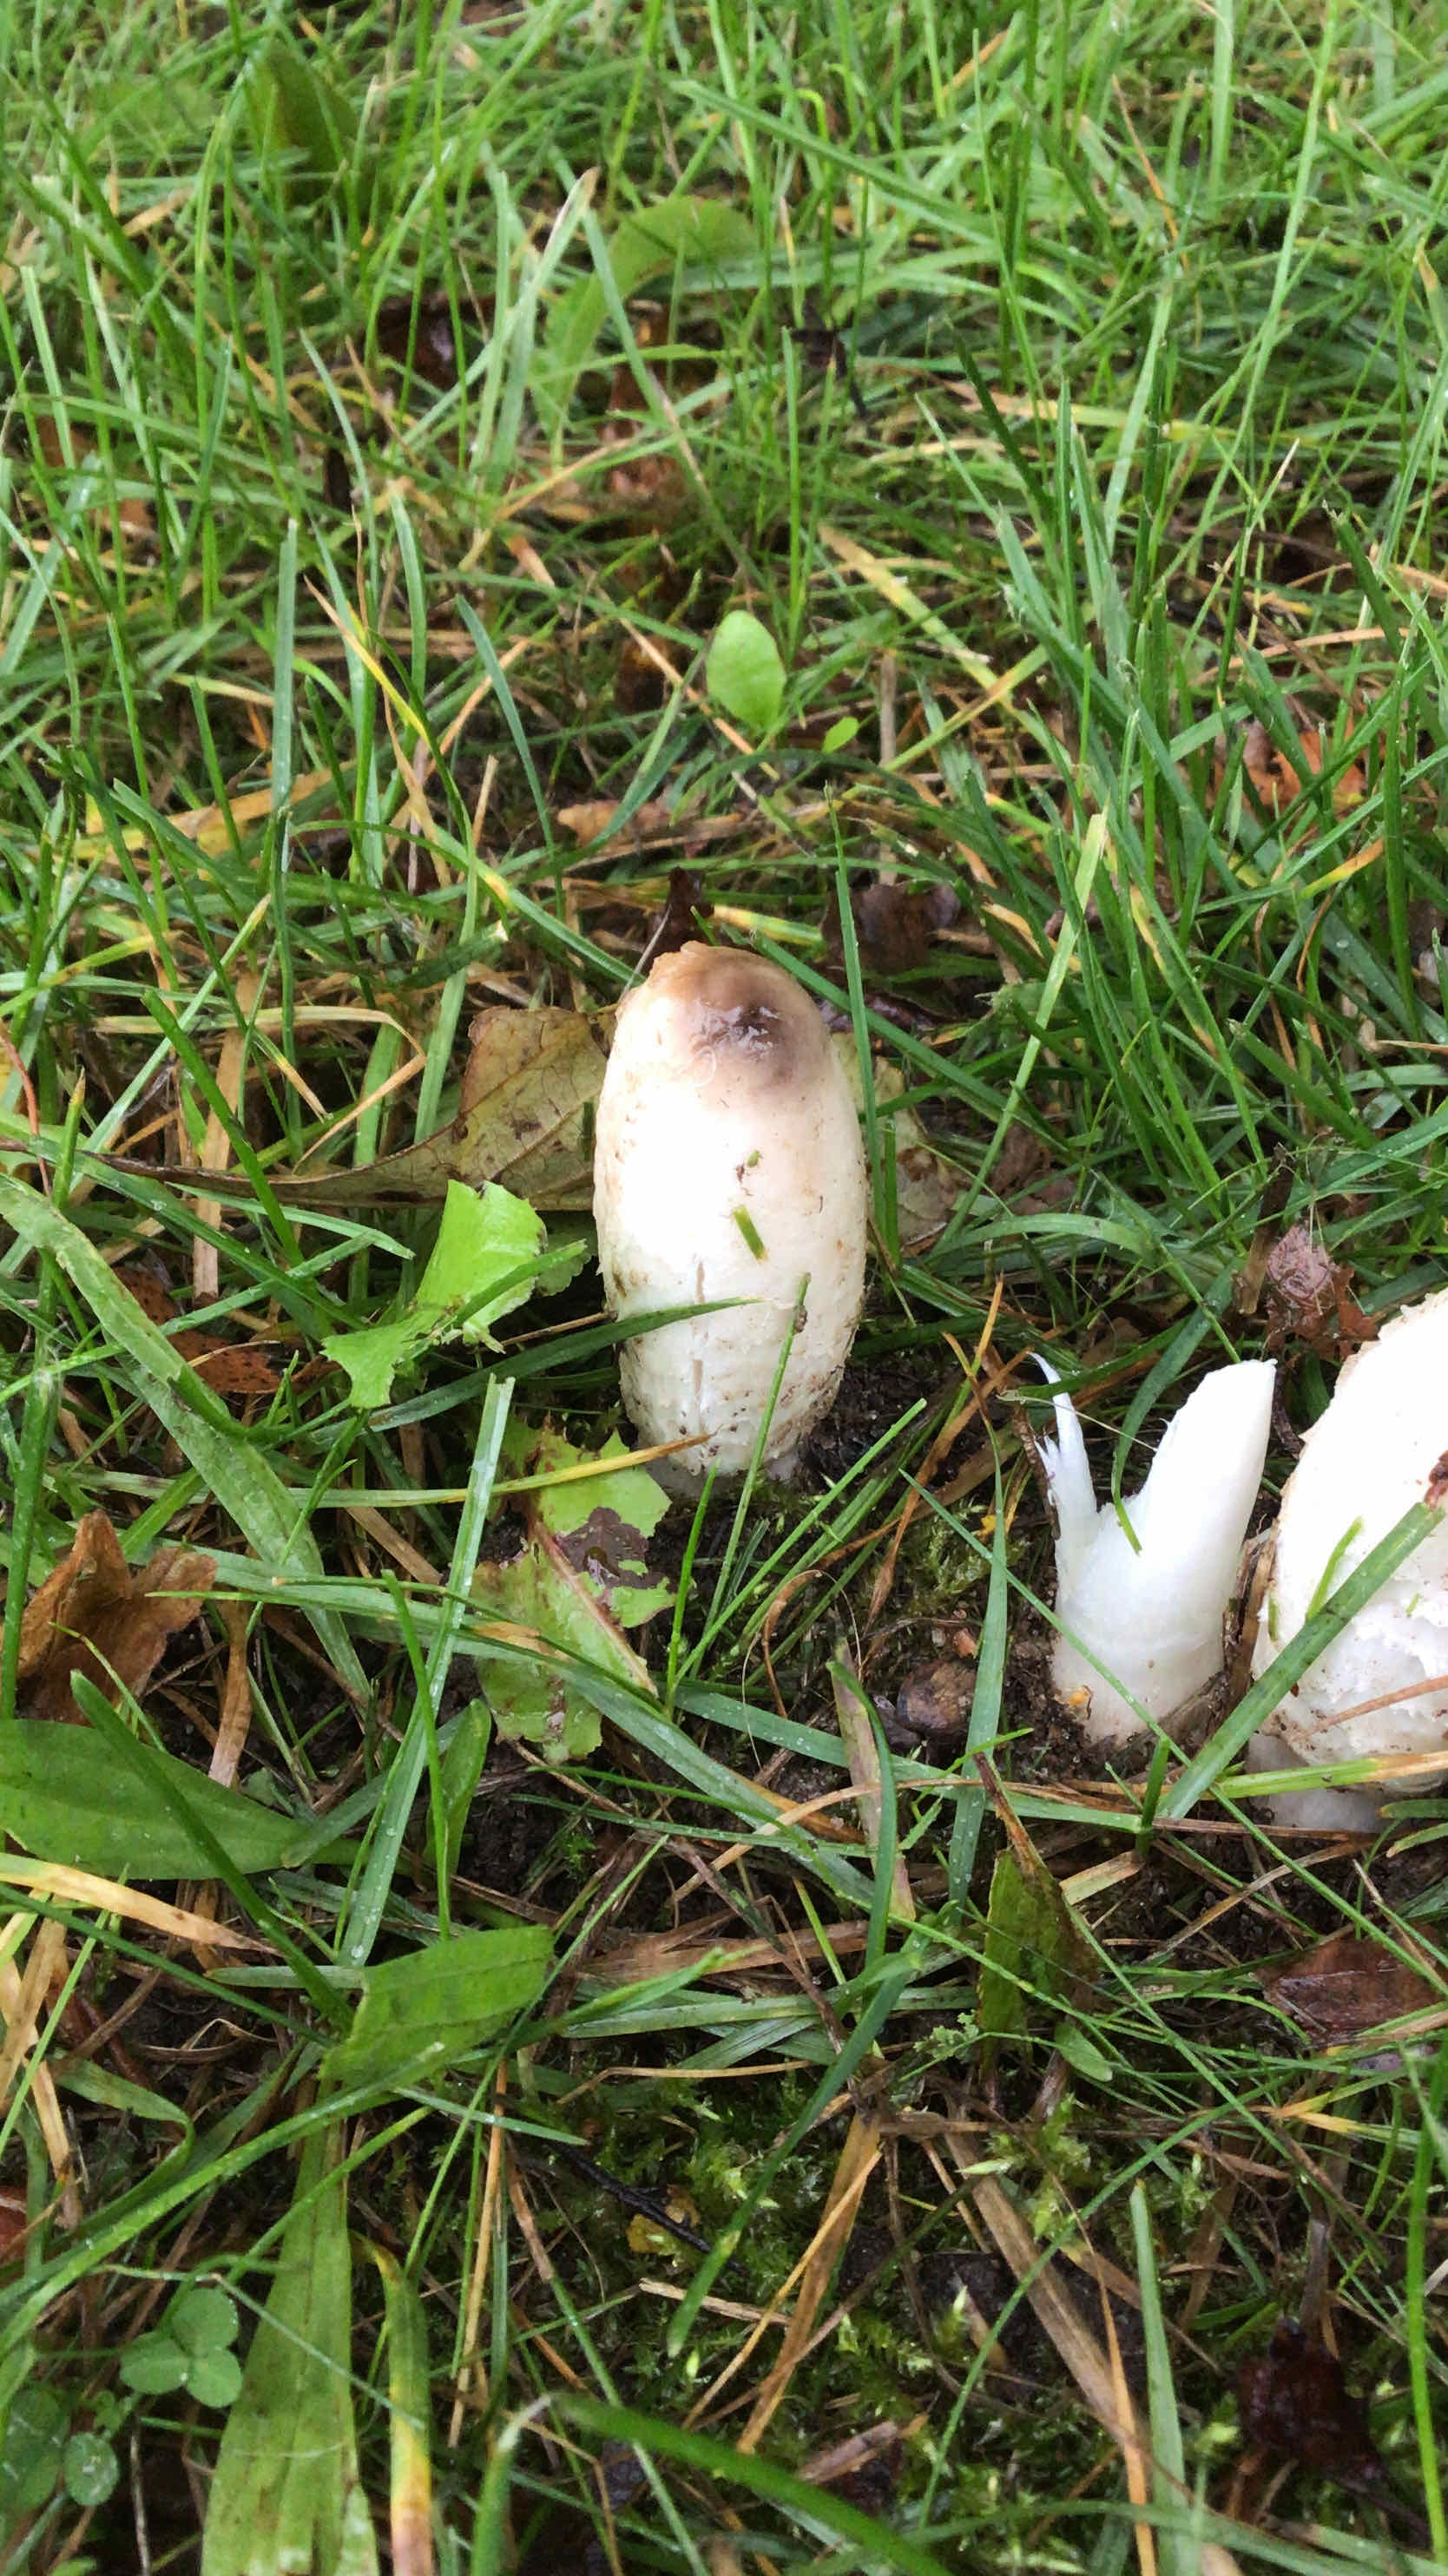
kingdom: Fungi
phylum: Basidiomycota
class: Agaricomycetes
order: Agaricales
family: Agaricaceae
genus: Coprinus
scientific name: Coprinus comatus
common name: stor parykhat
